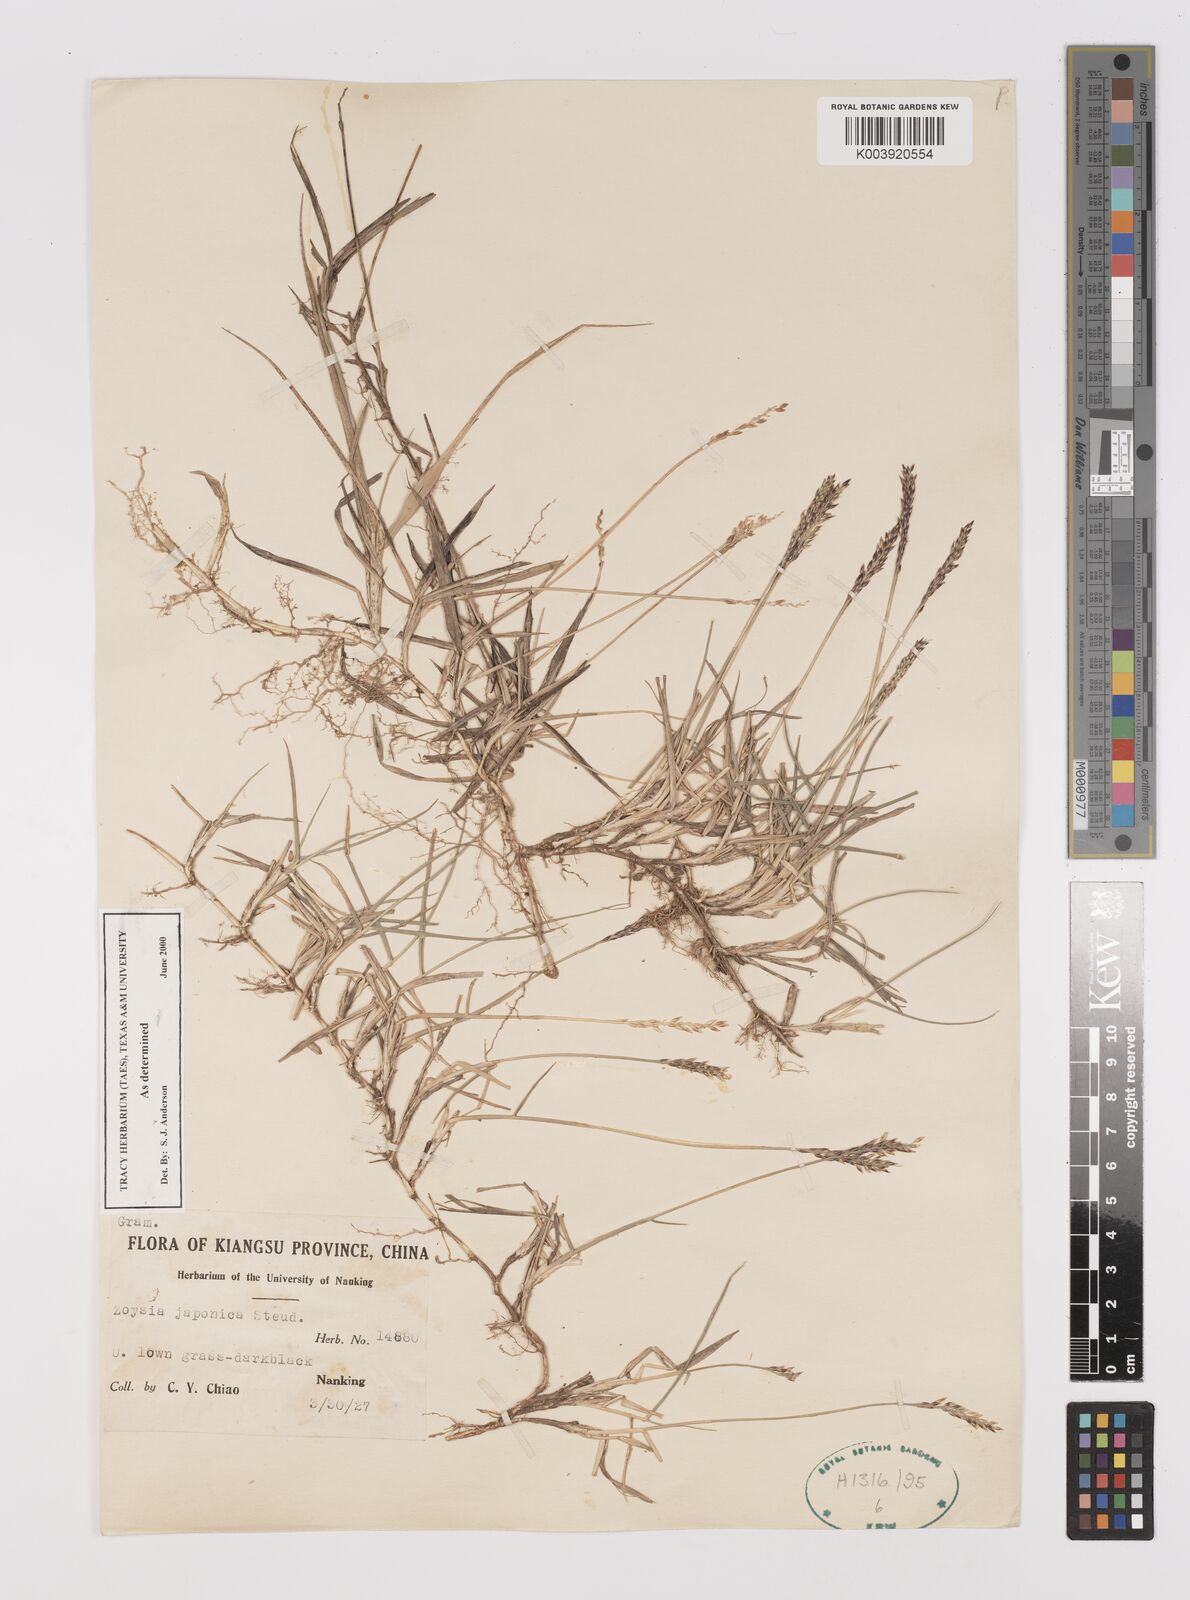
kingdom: Plantae
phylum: Tracheophyta
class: Liliopsida
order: Poales
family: Poaceae
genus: Zoysia
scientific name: Zoysia japonica
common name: Korean lawngrass
